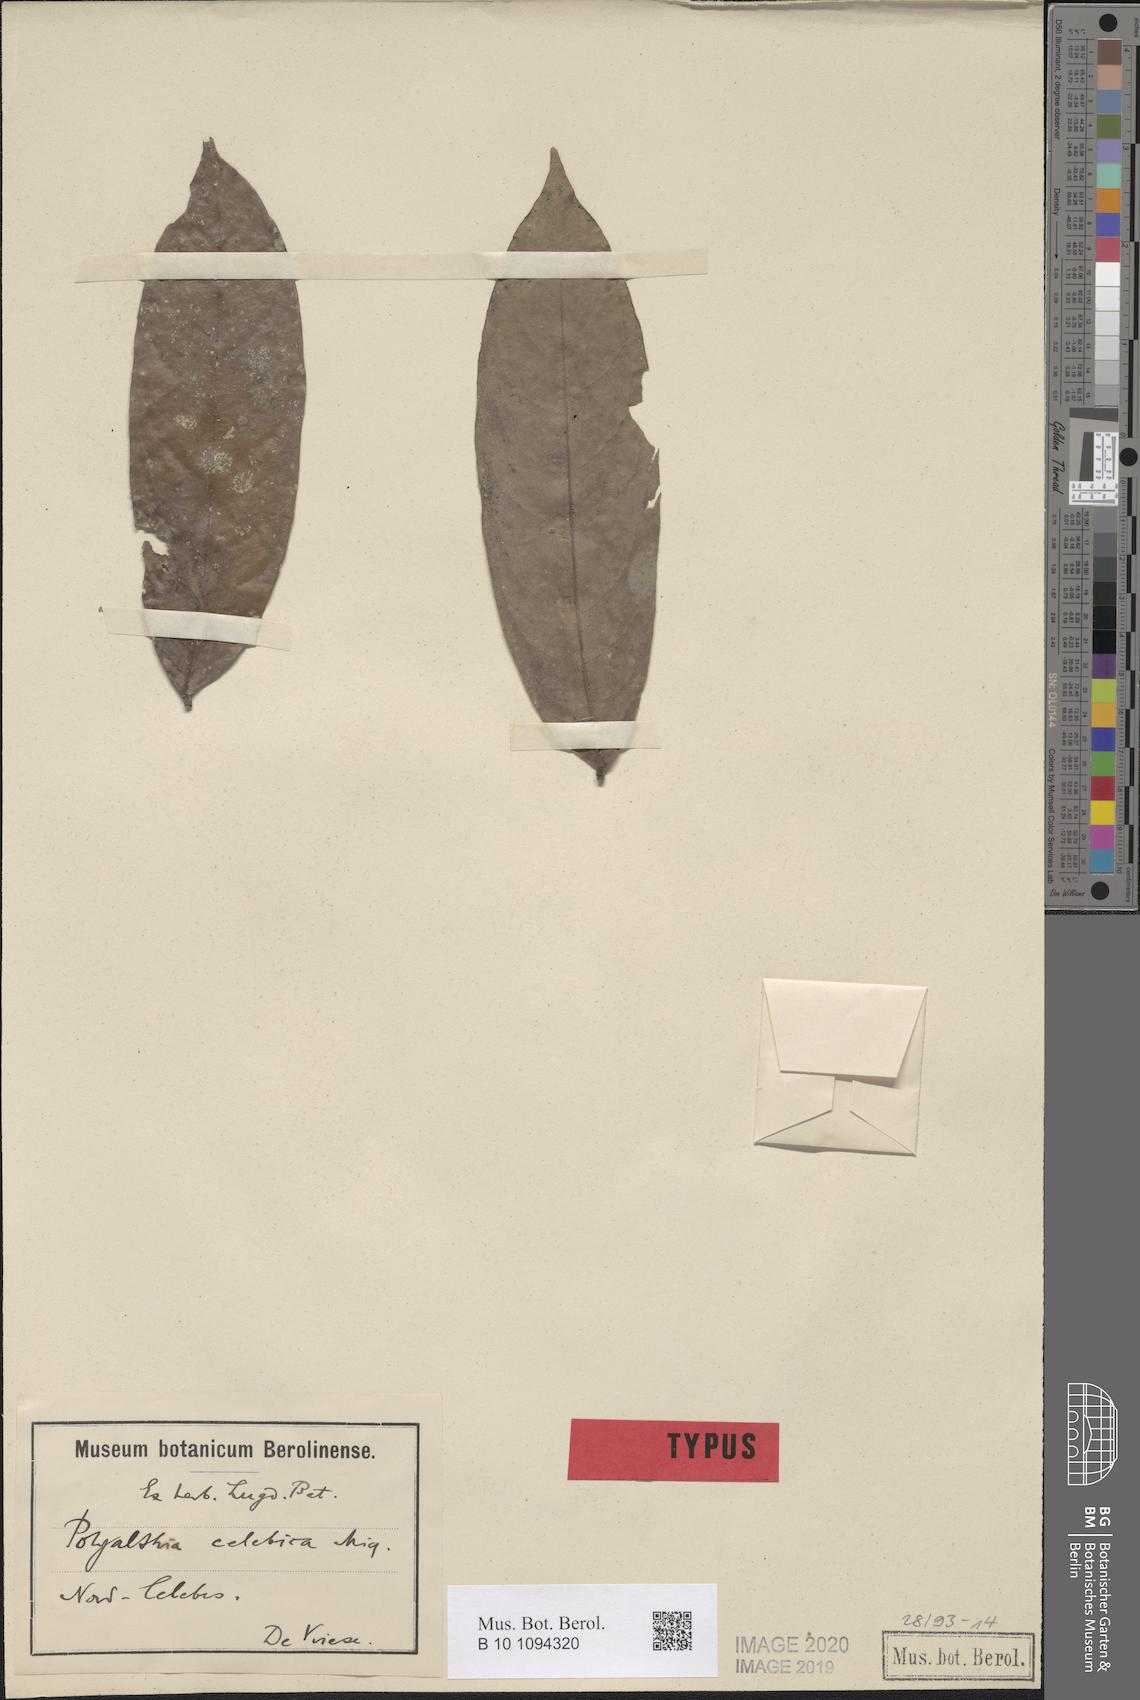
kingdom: Plantae
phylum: Tracheophyta
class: Magnoliopsida
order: Magnoliales
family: Annonaceae
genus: Polyalthia
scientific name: Polyalthia celebica
